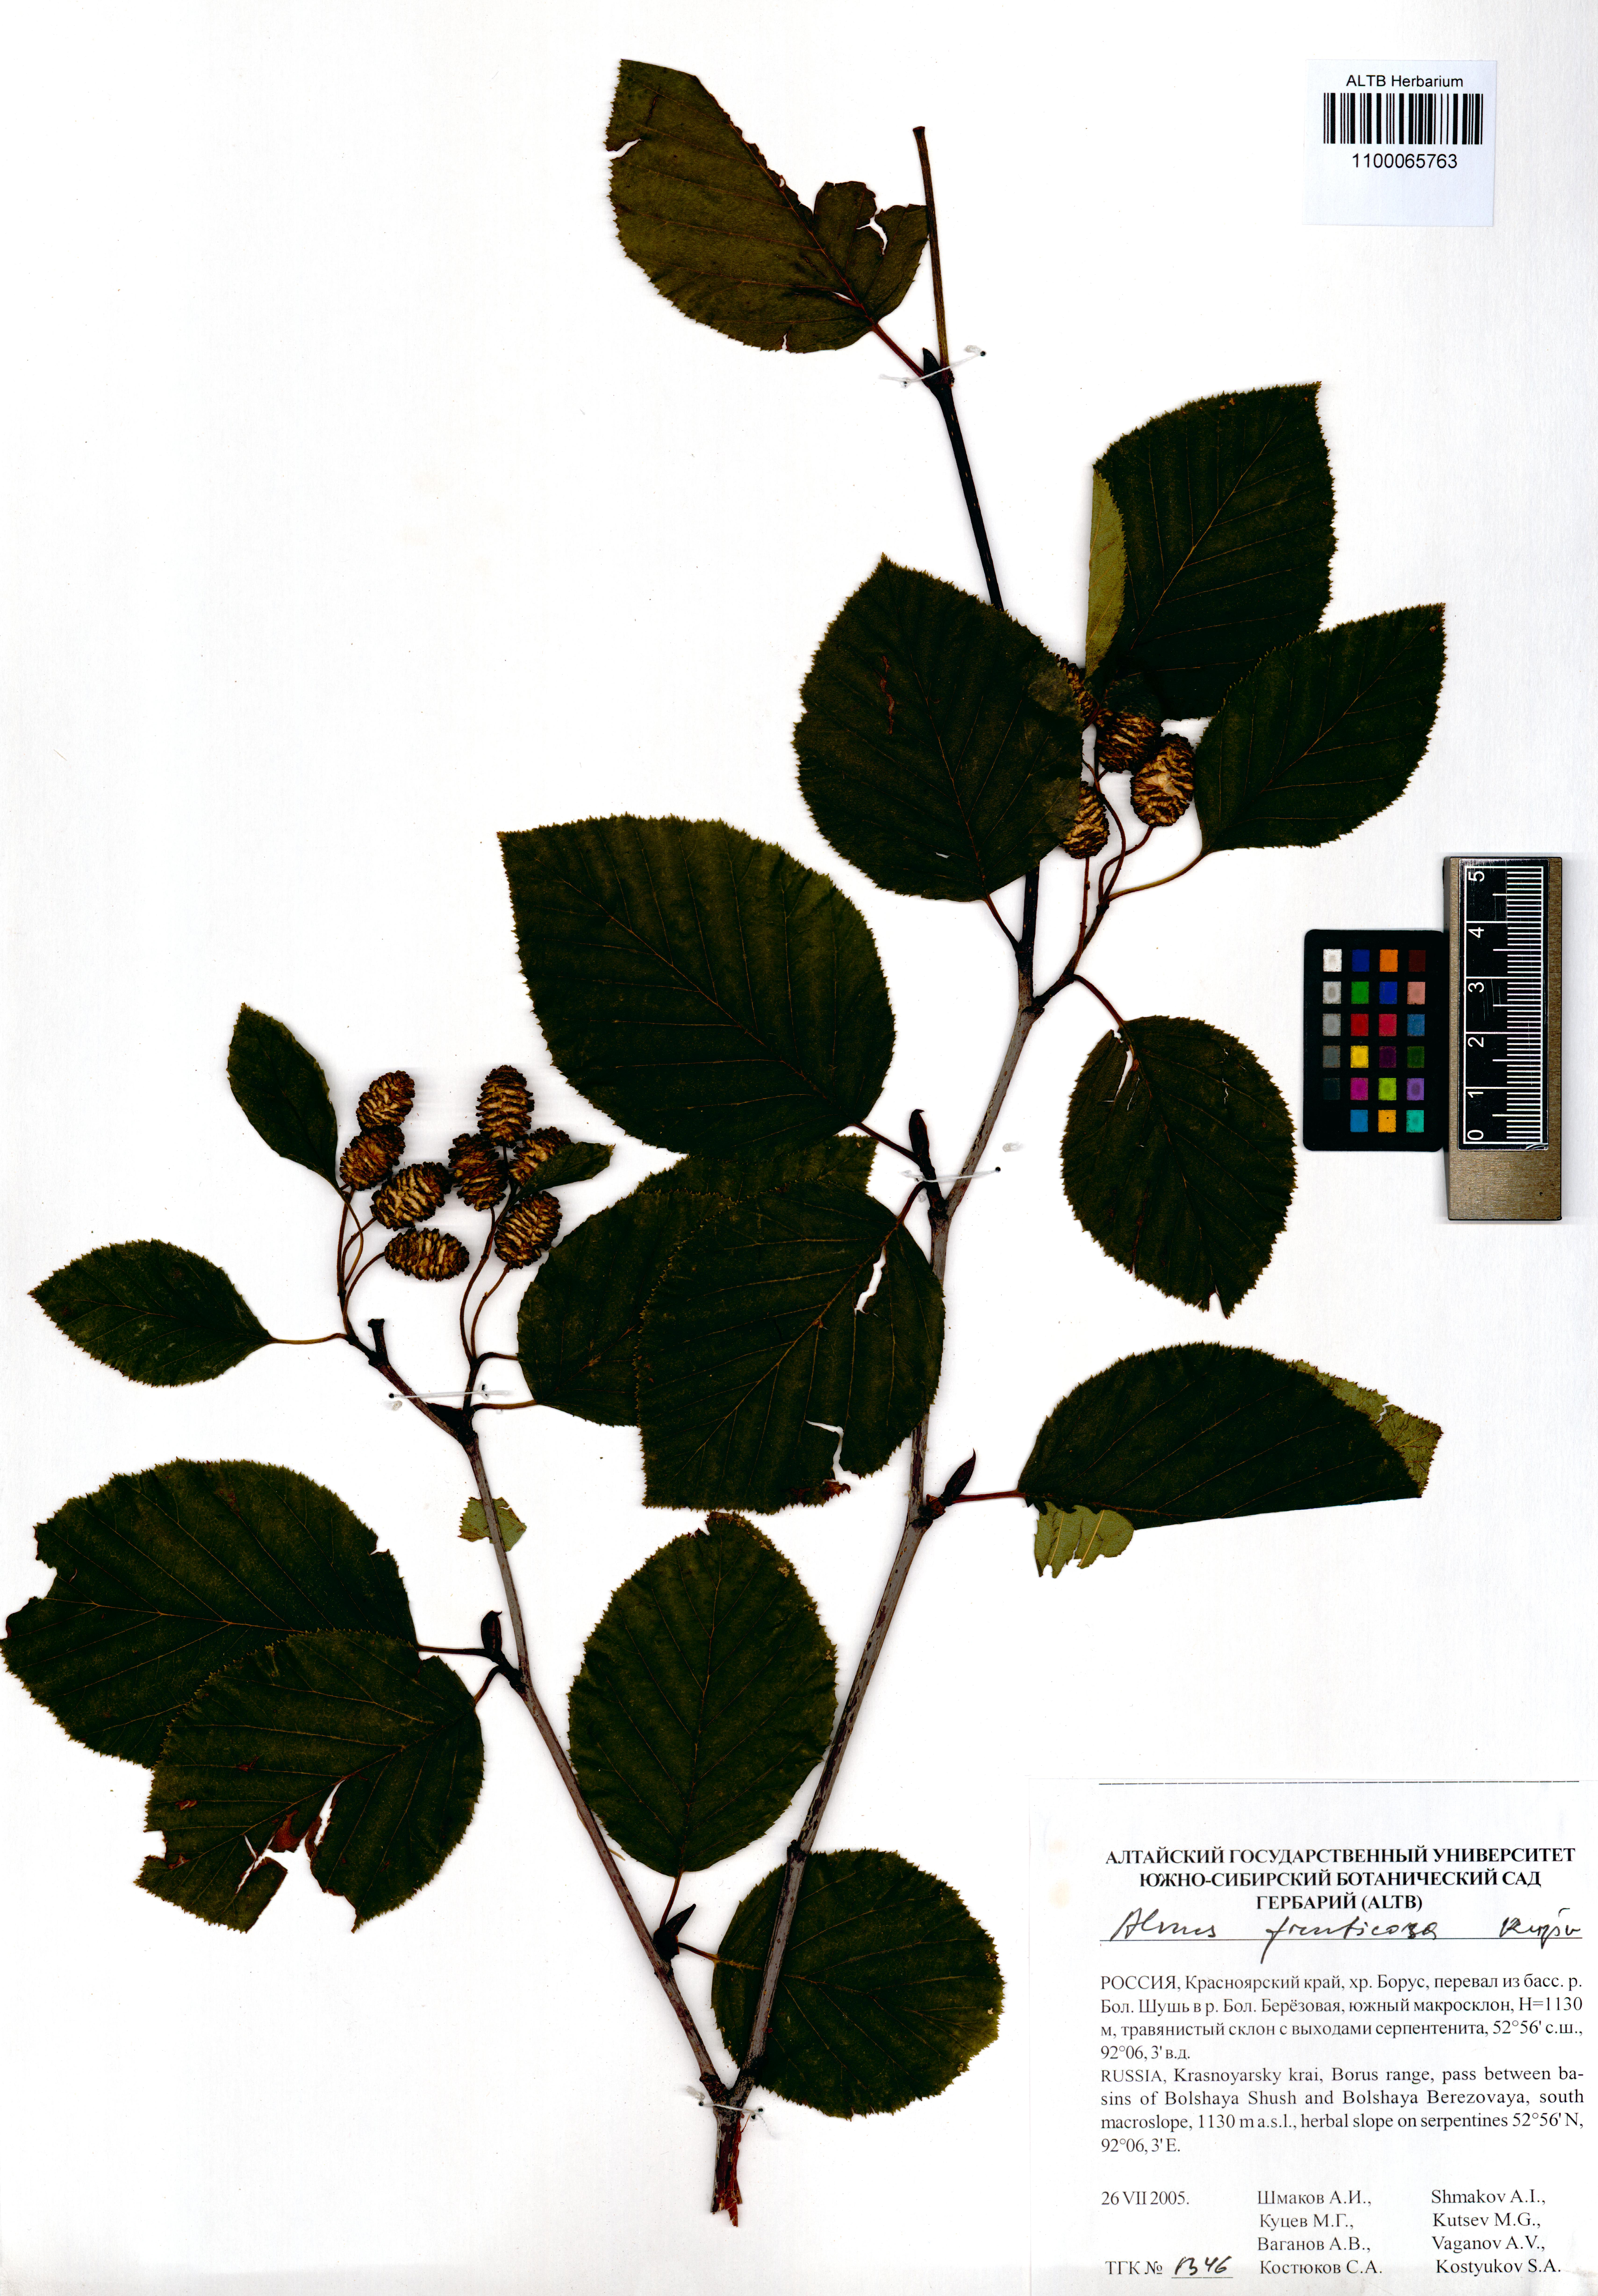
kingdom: Plantae
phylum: Tracheophyta
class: Magnoliopsida
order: Fagales
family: Betulaceae
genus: Alnus
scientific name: Alnus alnobetula
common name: Green alder
